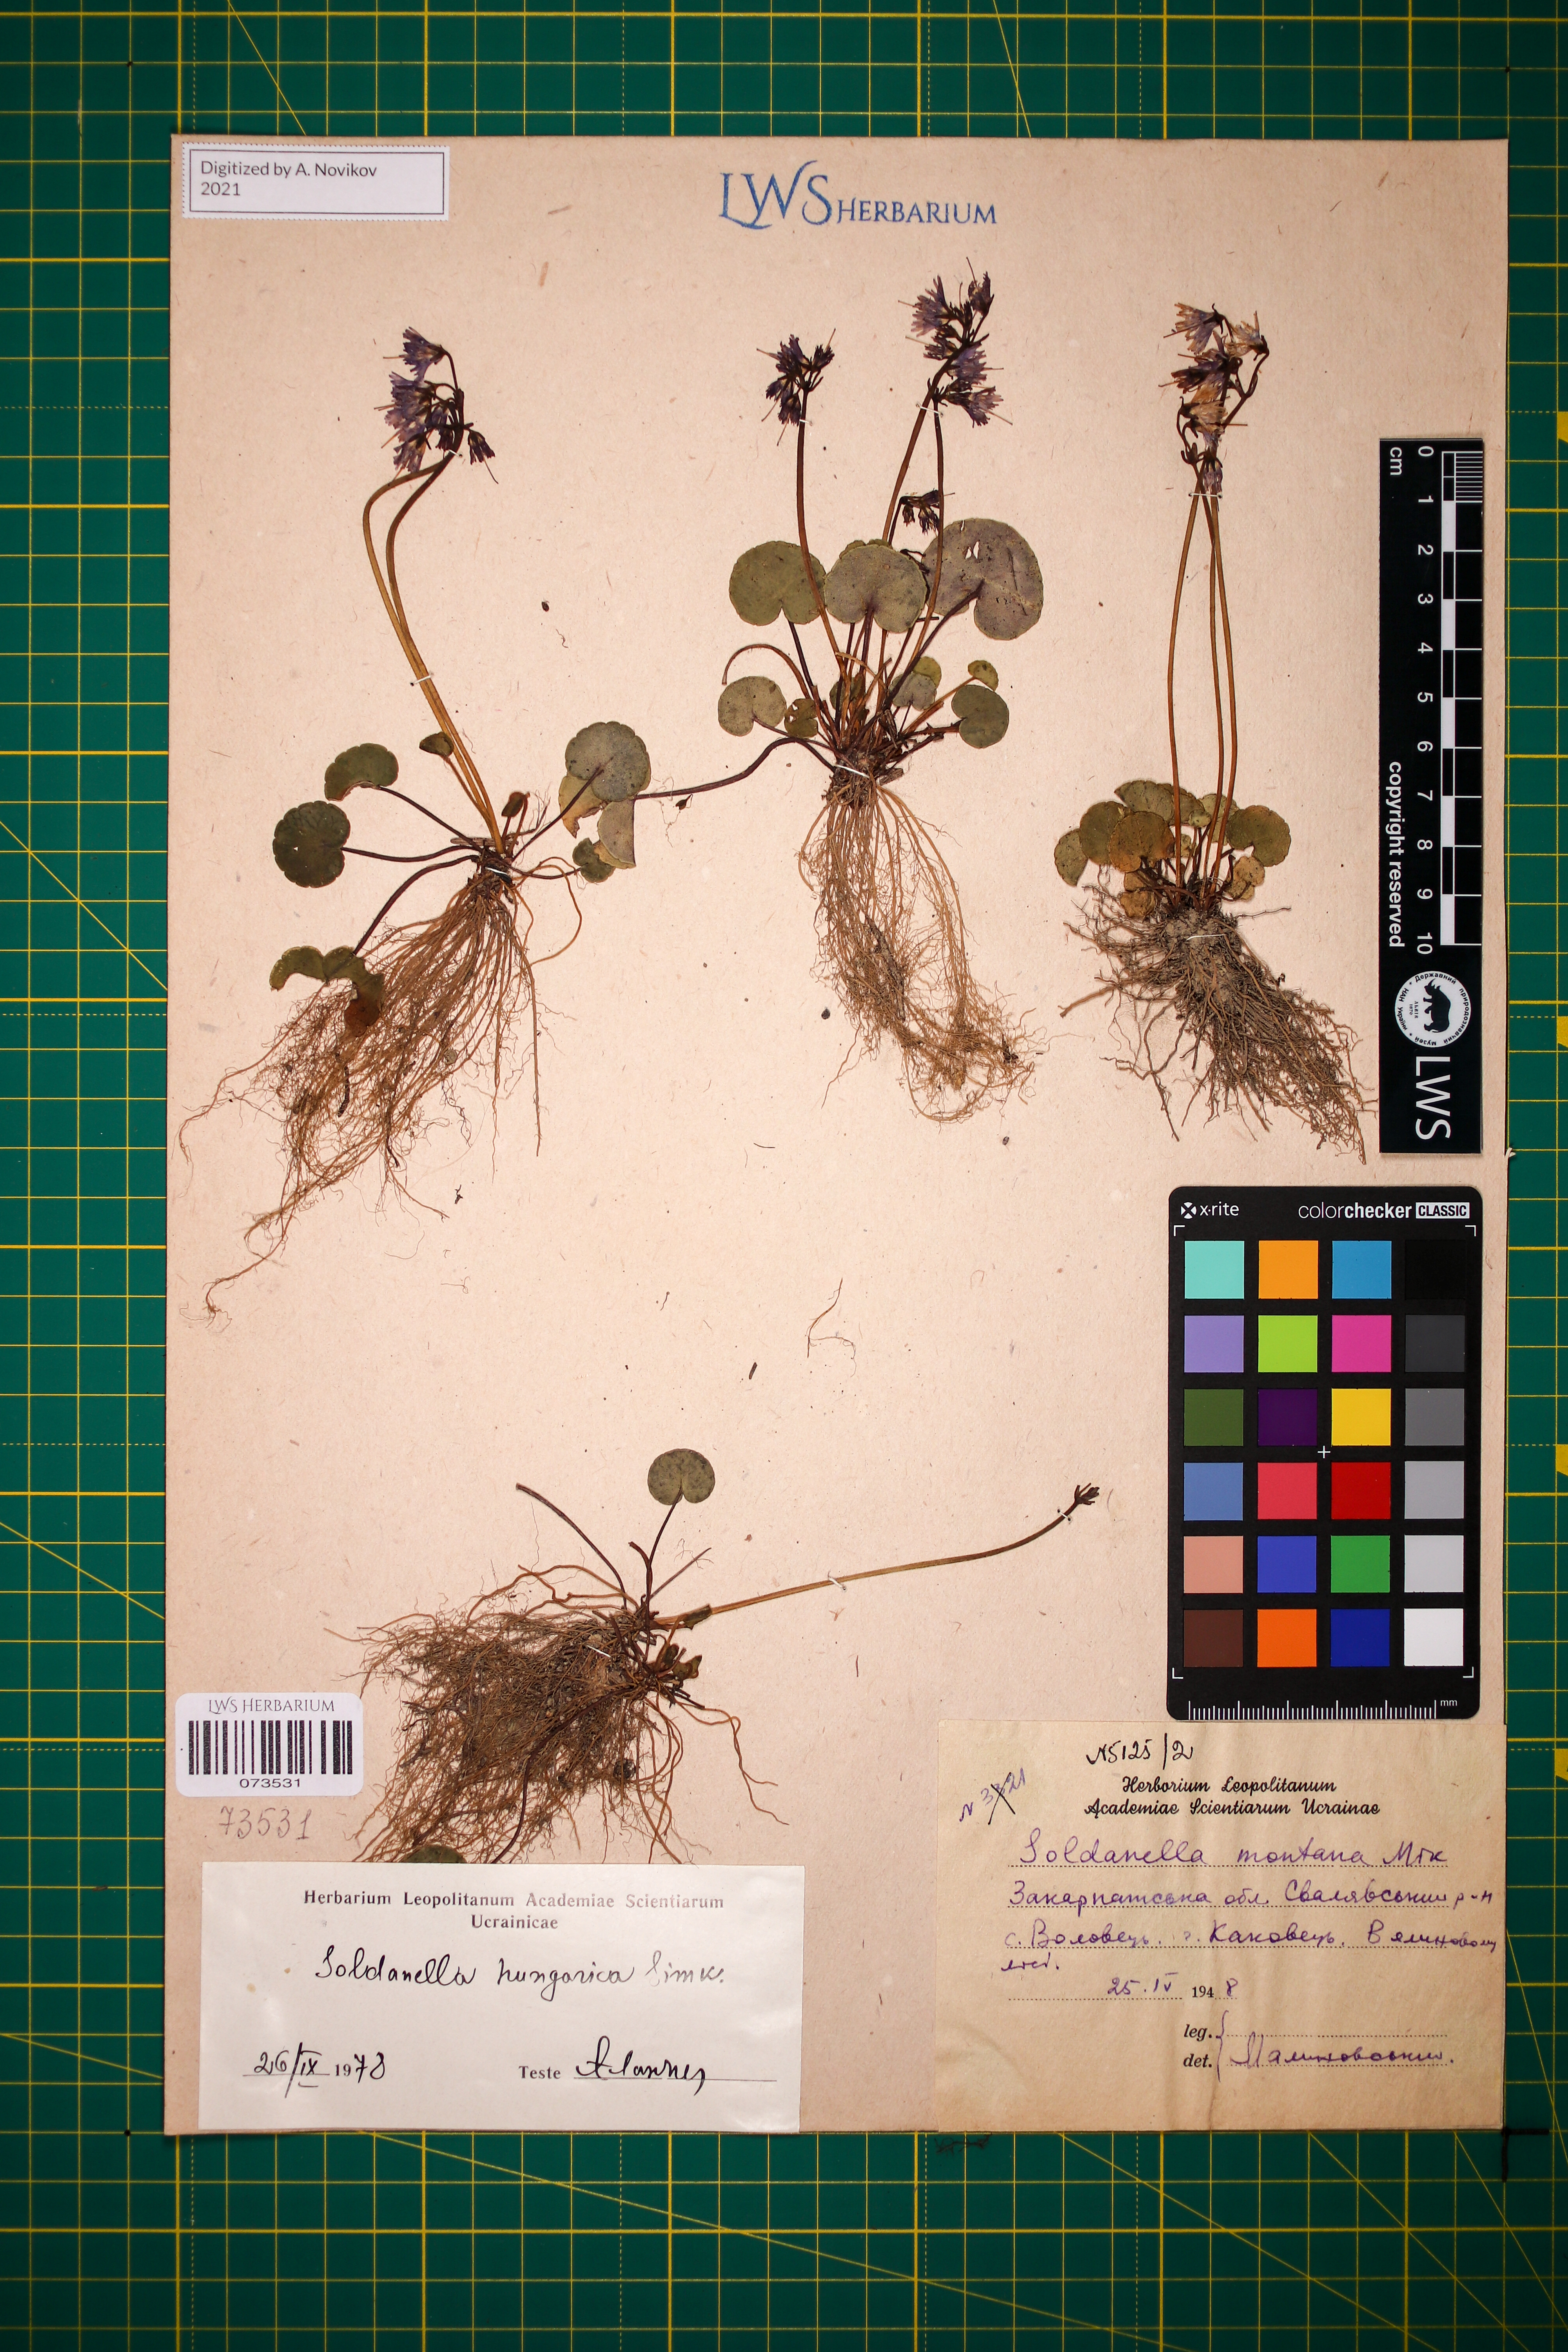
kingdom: Plantae
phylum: Tracheophyta
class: Magnoliopsida
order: Ericales
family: Primulaceae
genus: Soldanella
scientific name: Soldanella hungarica
